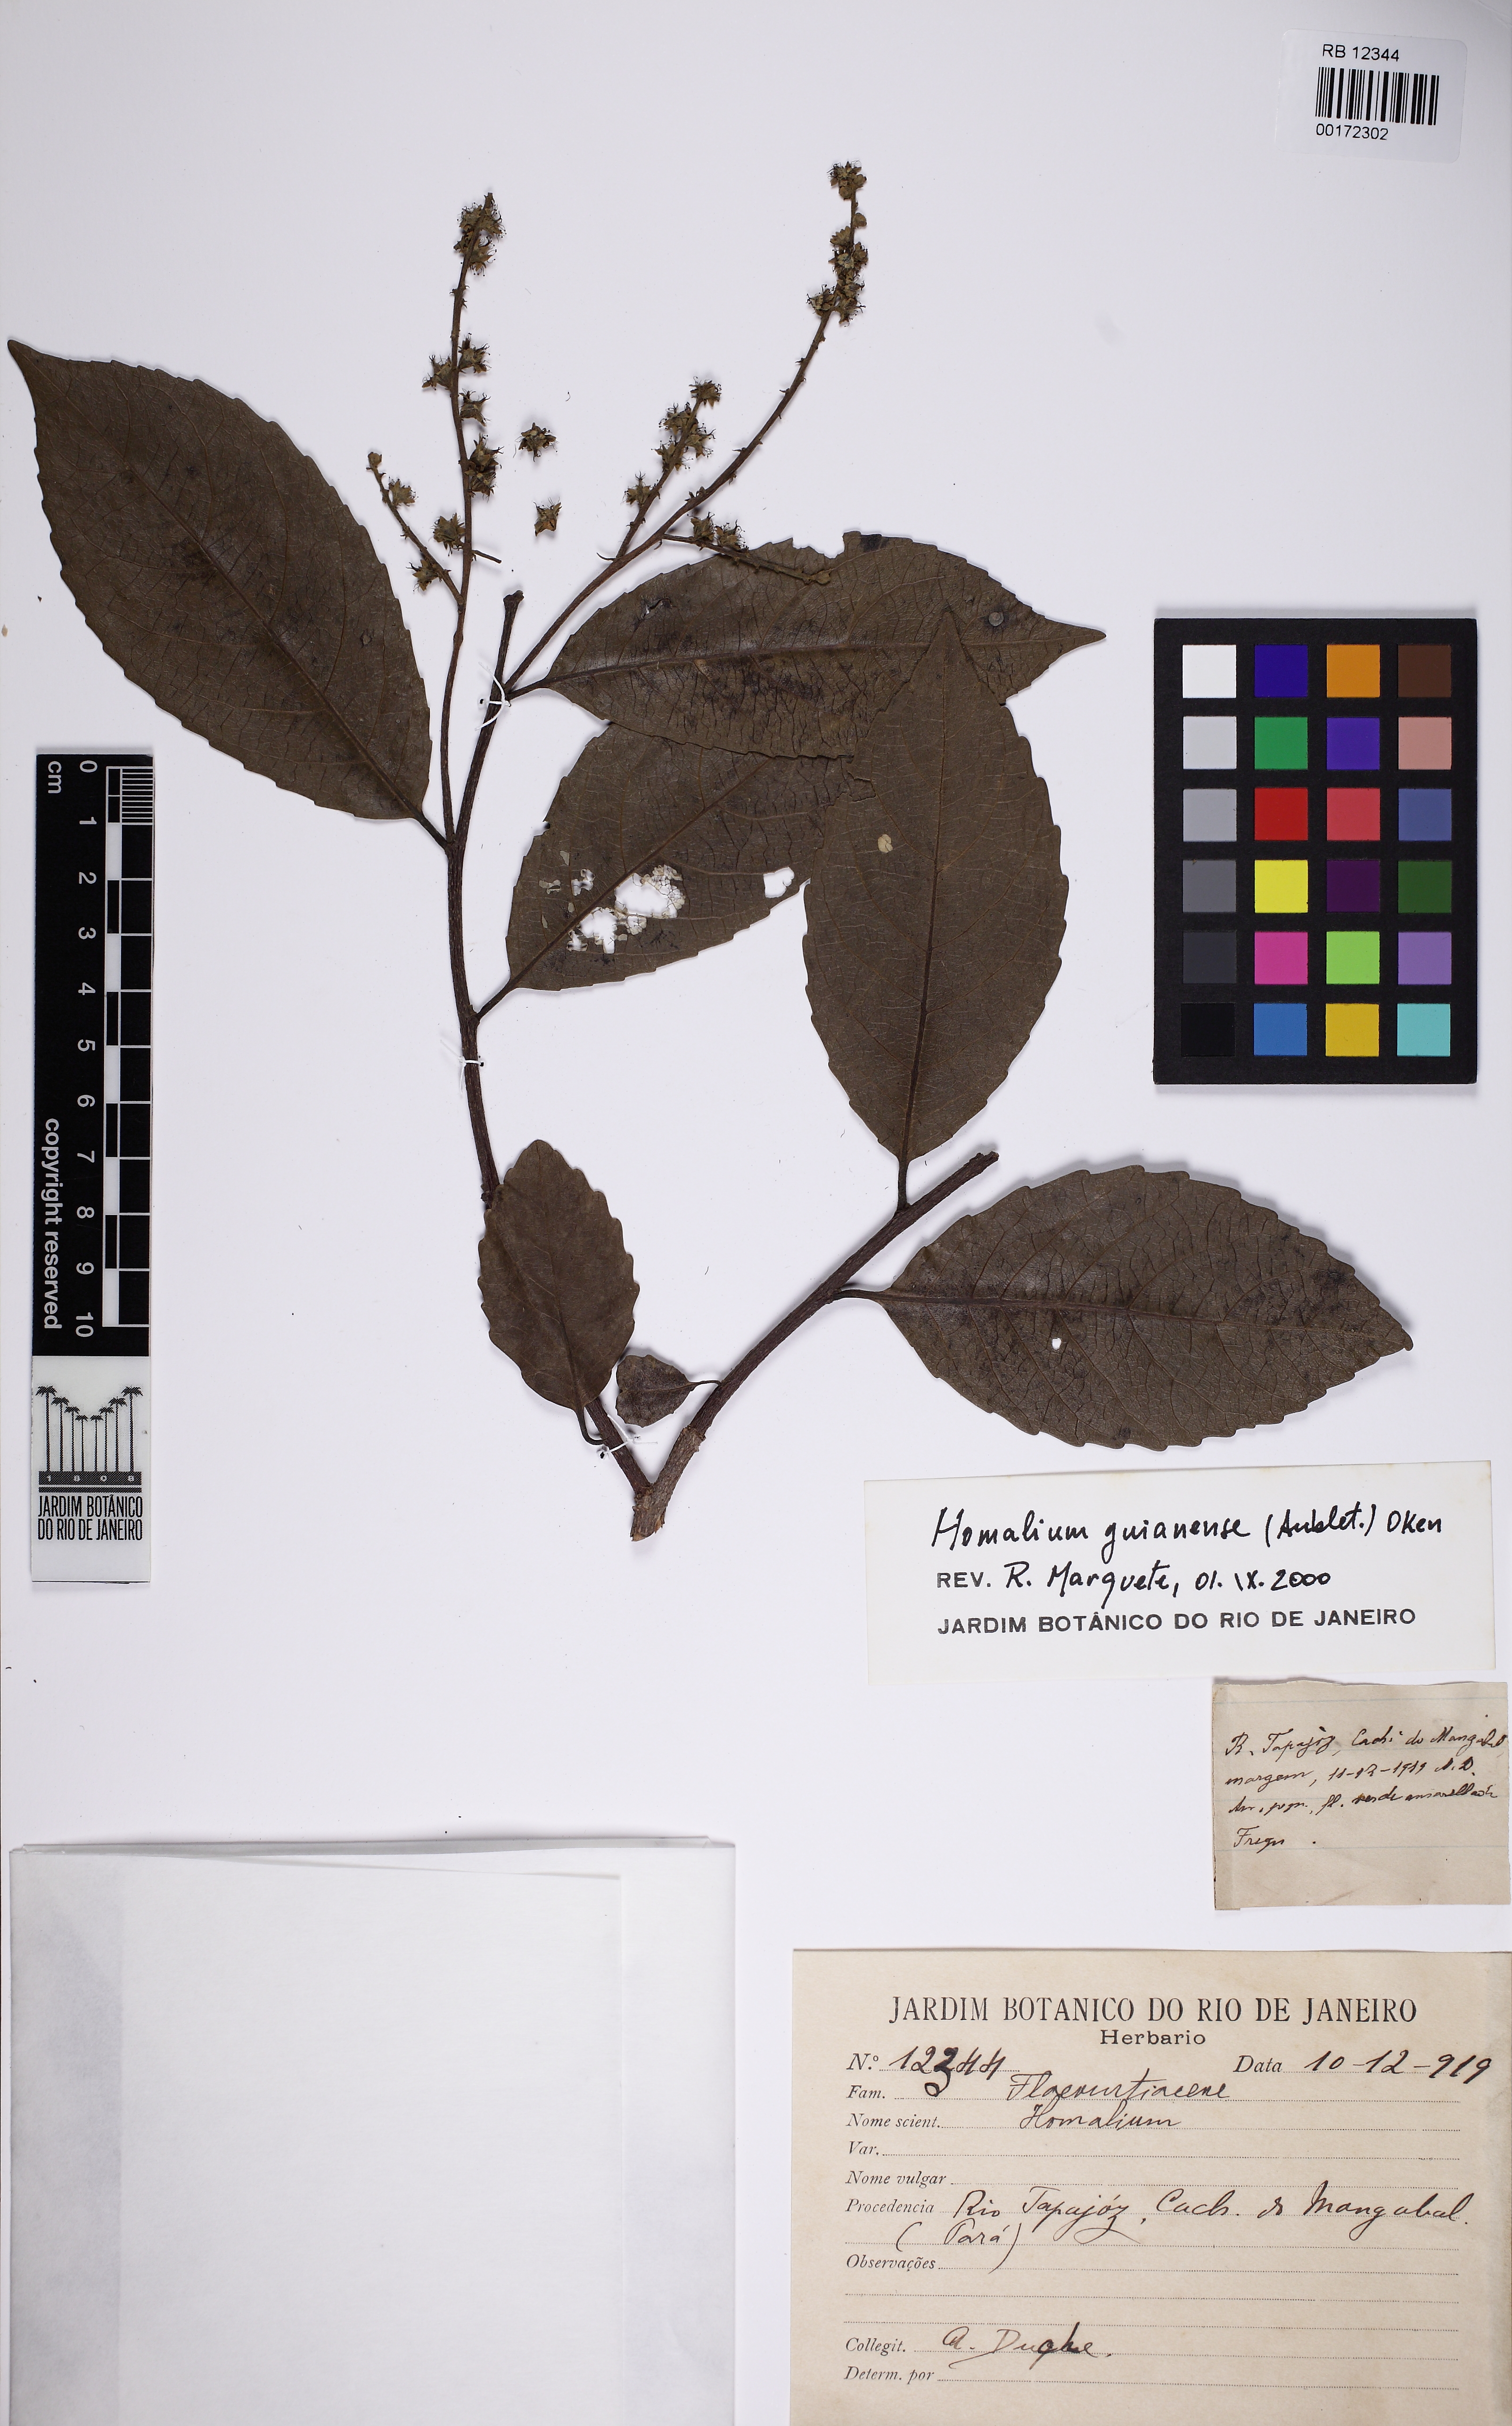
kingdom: Plantae
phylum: Tracheophyta
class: Magnoliopsida
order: Malpighiales
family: Salicaceae
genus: Homalium
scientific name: Homalium guianense
